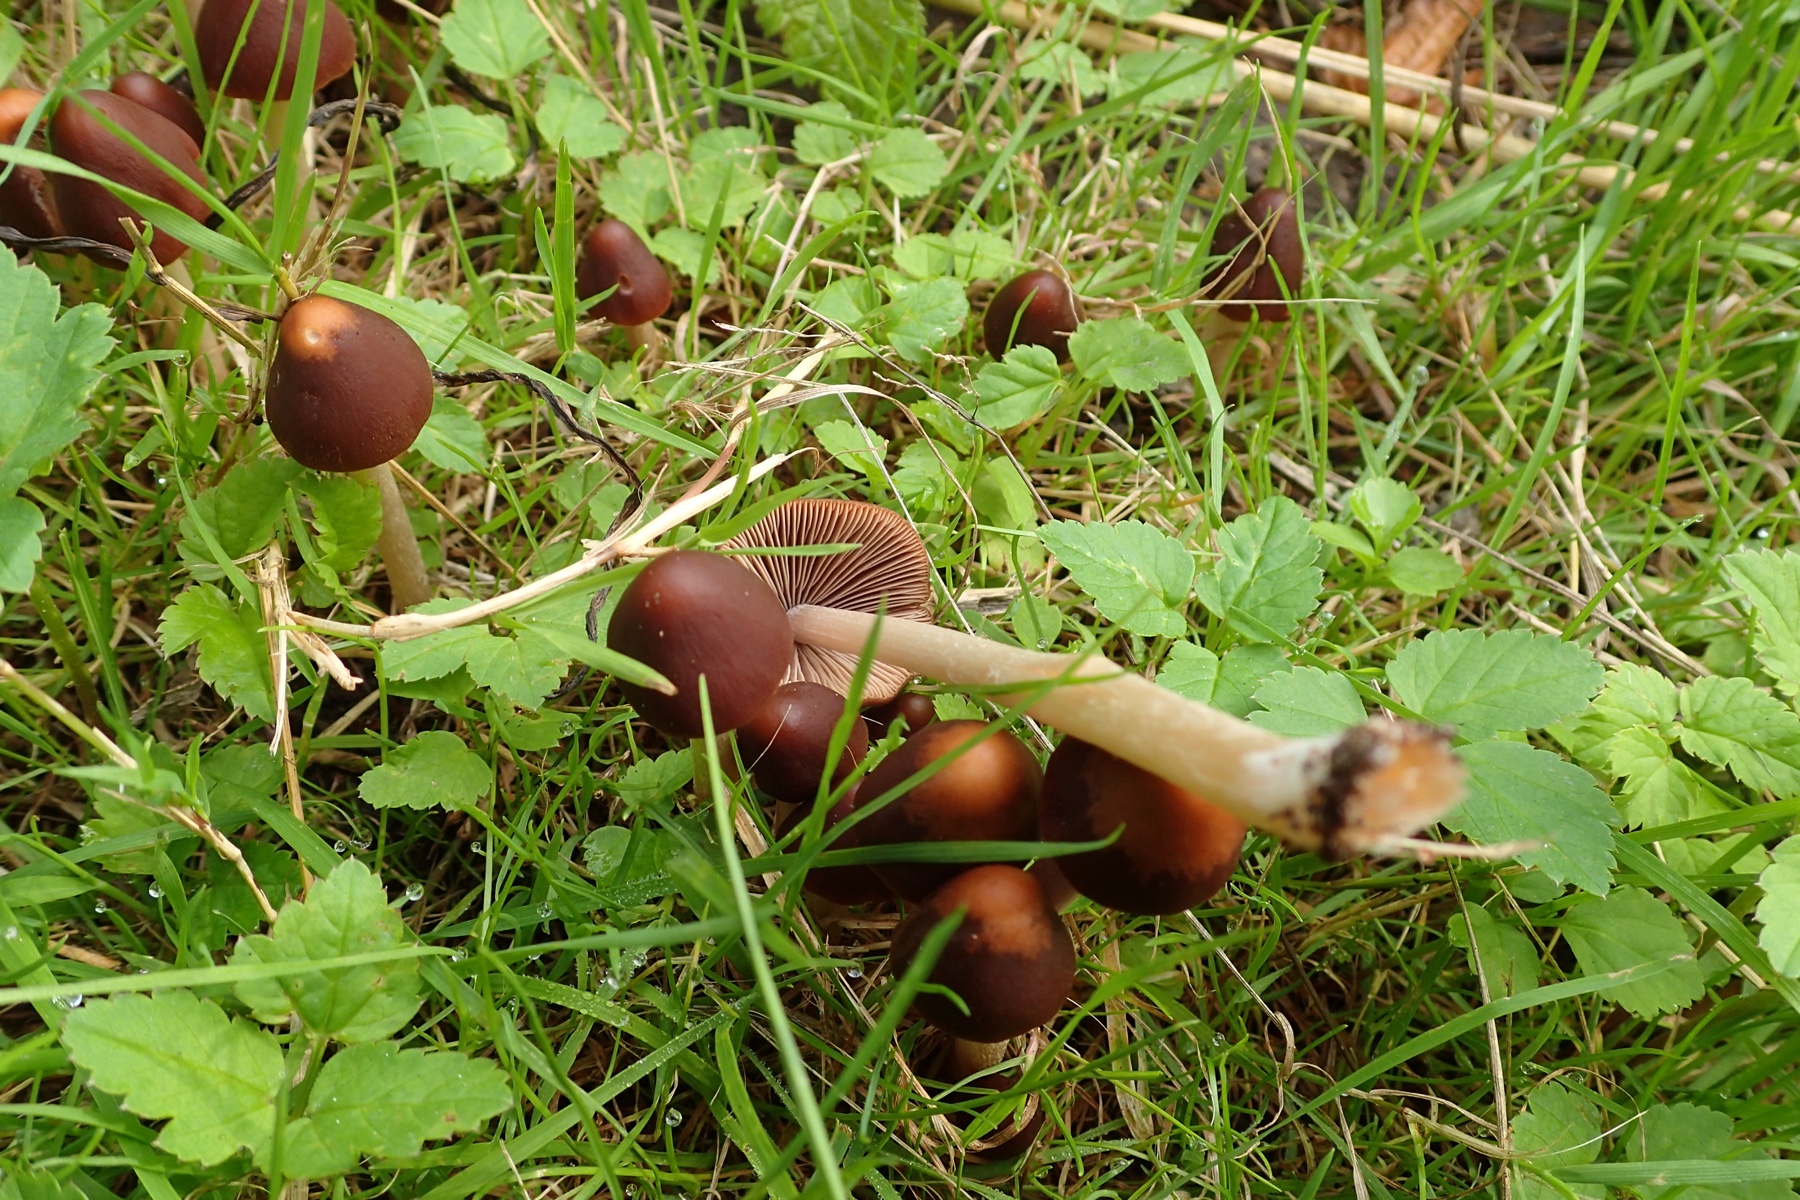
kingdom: Fungi
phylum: Basidiomycota
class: Agaricomycetes
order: Agaricales
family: Psathyrellaceae
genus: Parasola
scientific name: Parasola conopilea
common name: kegle-hjulhat
